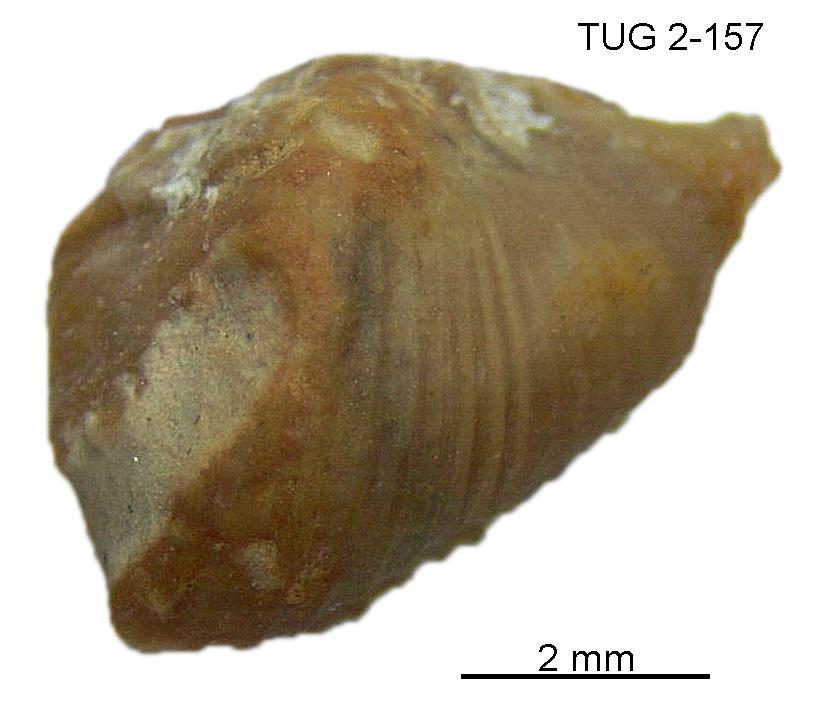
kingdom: Animalia
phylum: Mollusca
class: Rostroconchia
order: Conocardiida
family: Bransoniidae
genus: Mulceodens
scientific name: Mulceodens jaanussoni
